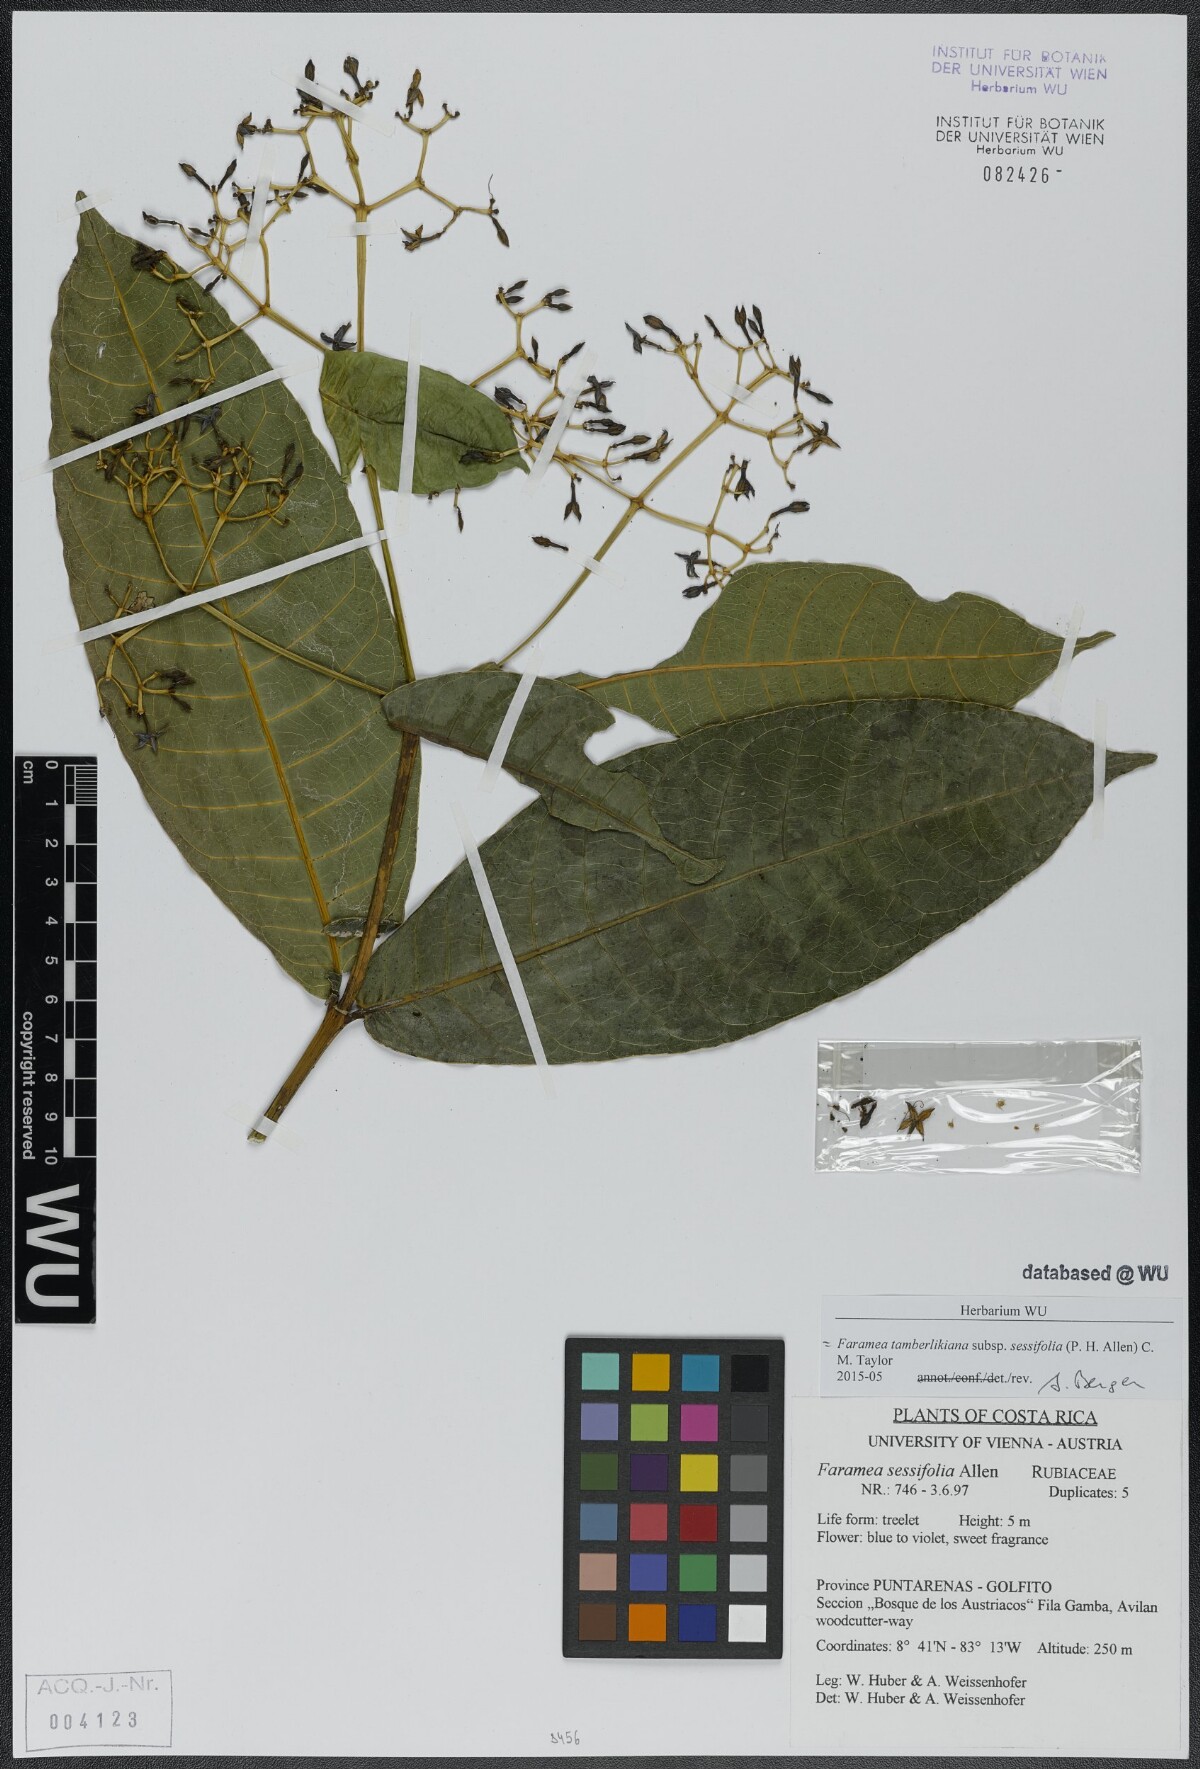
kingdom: Plantae
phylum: Tracheophyta
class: Magnoliopsida
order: Gentianales
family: Rubiaceae
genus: Faramea
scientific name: Faramea tamberlikiana
